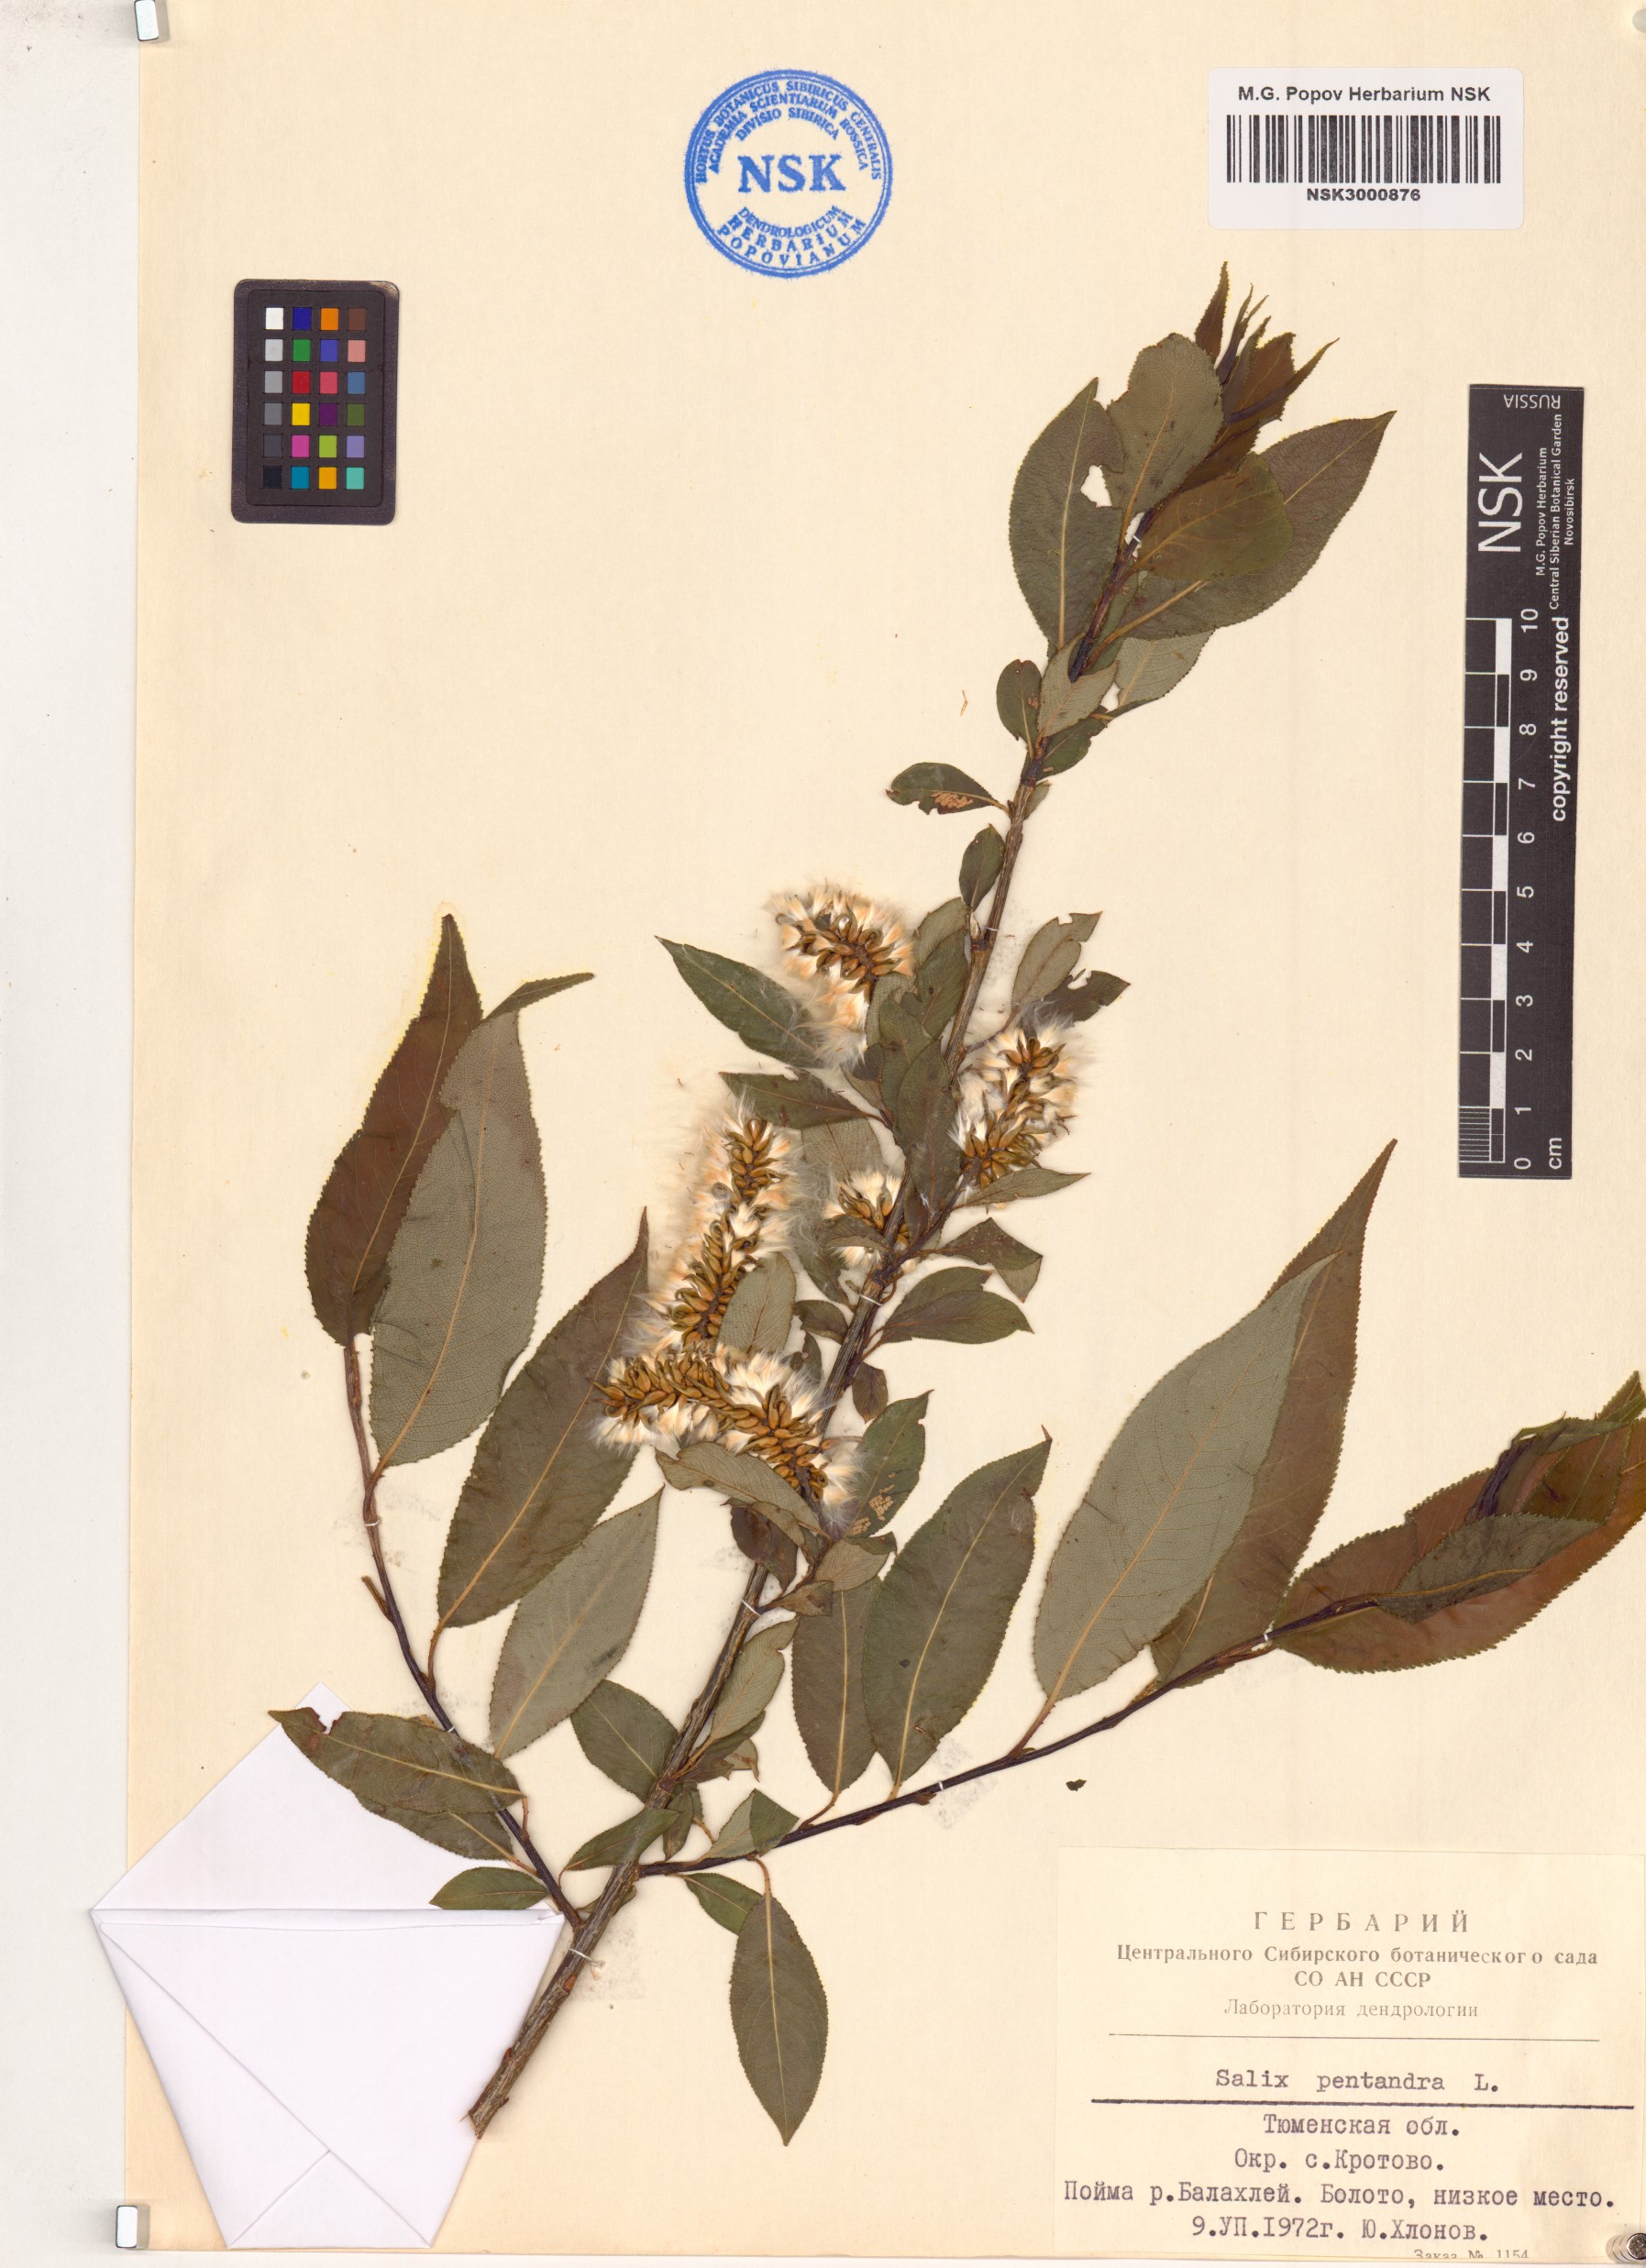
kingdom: Plantae
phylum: Tracheophyta
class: Magnoliopsida
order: Malpighiales
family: Salicaceae
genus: Salix
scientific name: Salix pentandra
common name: Bay willow
